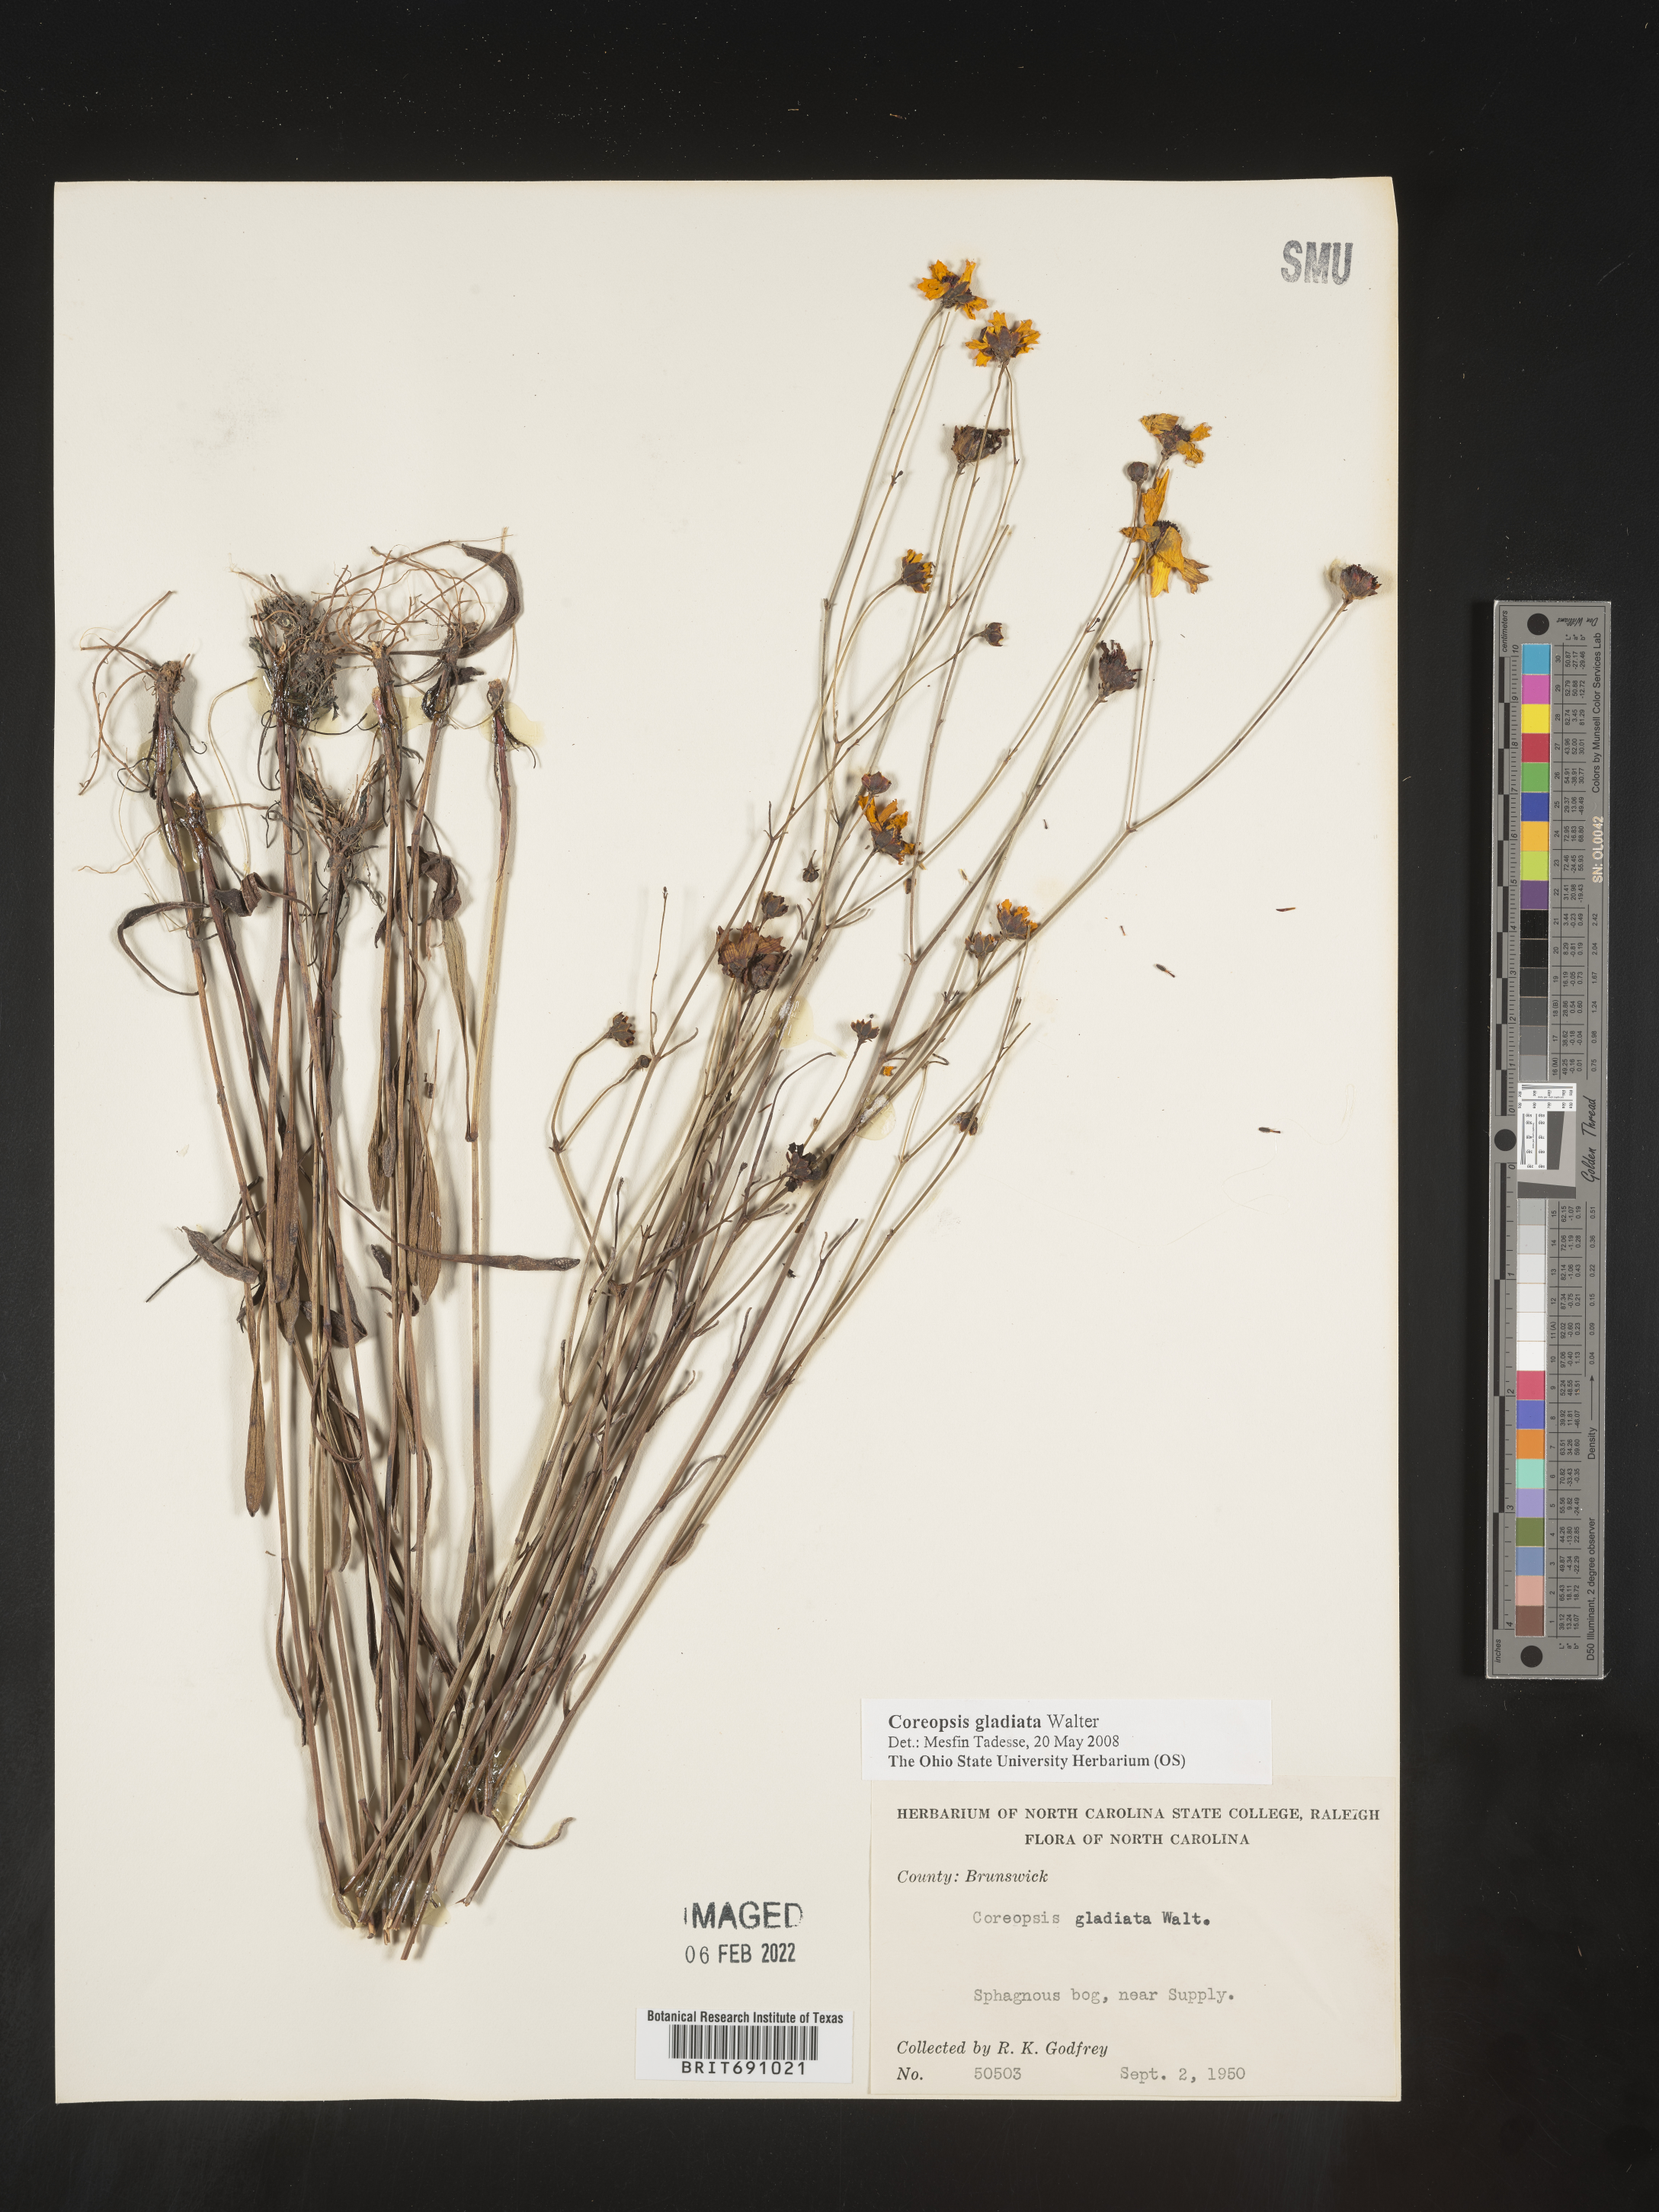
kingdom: Plantae
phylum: Tracheophyta
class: Magnoliopsida
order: Asterales
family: Asteraceae
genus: Coreopsis
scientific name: Coreopsis gladiata
